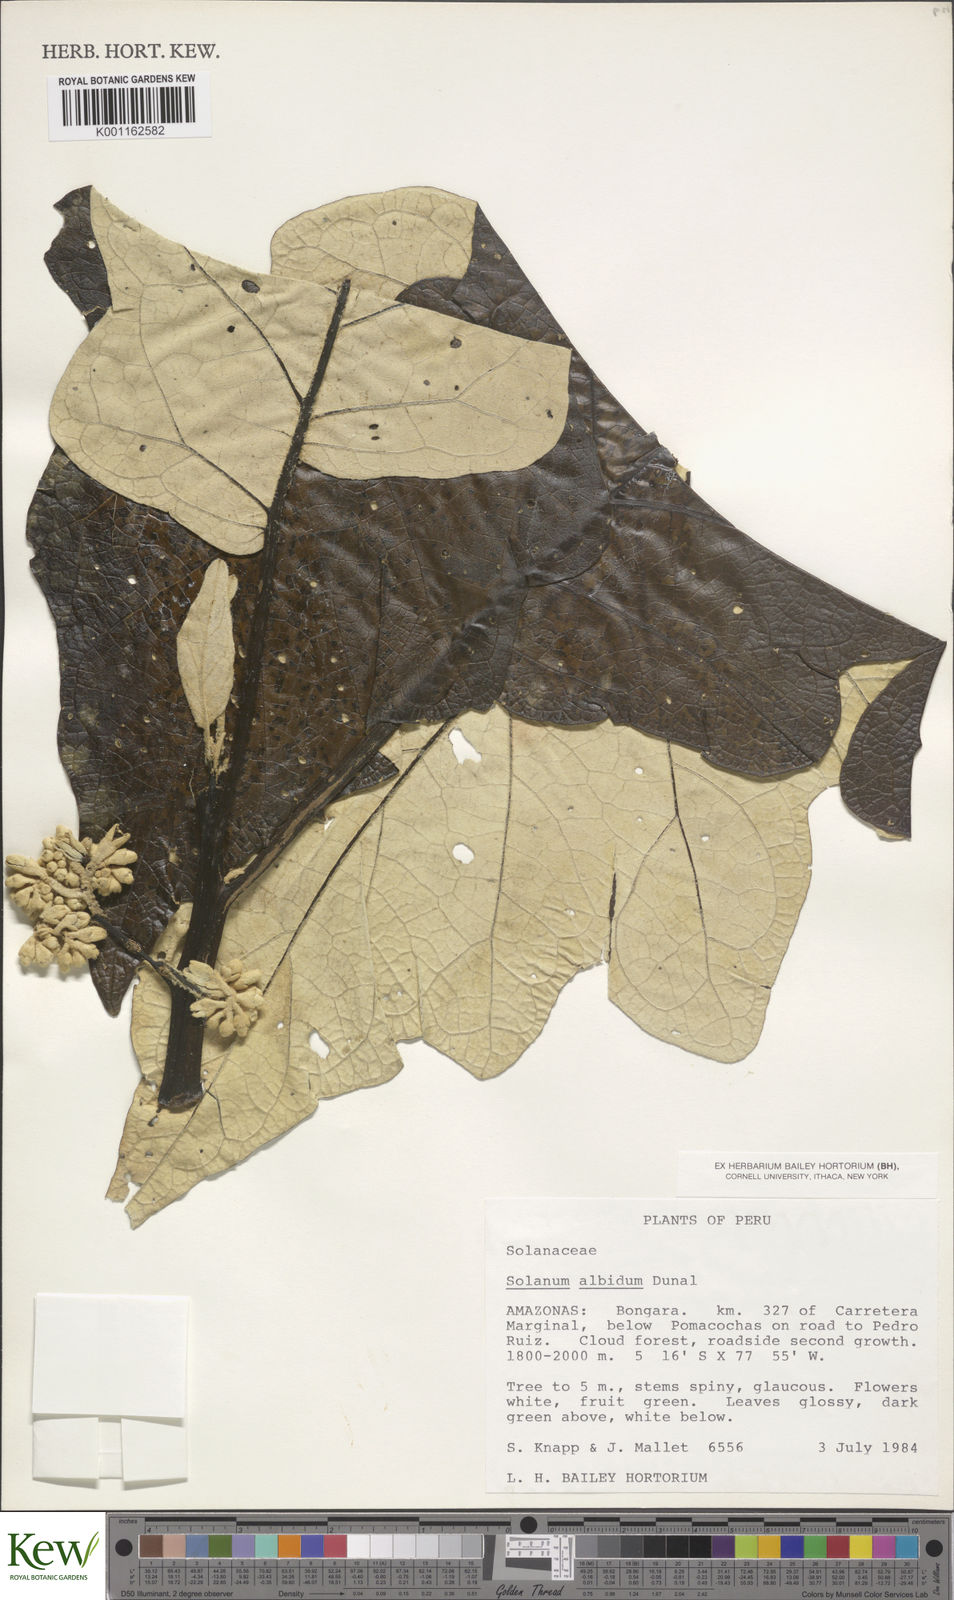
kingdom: Plantae
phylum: Tracheophyta
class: Magnoliopsida
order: Solanales
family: Solanaceae
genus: Solanum
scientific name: Solanum albidum
